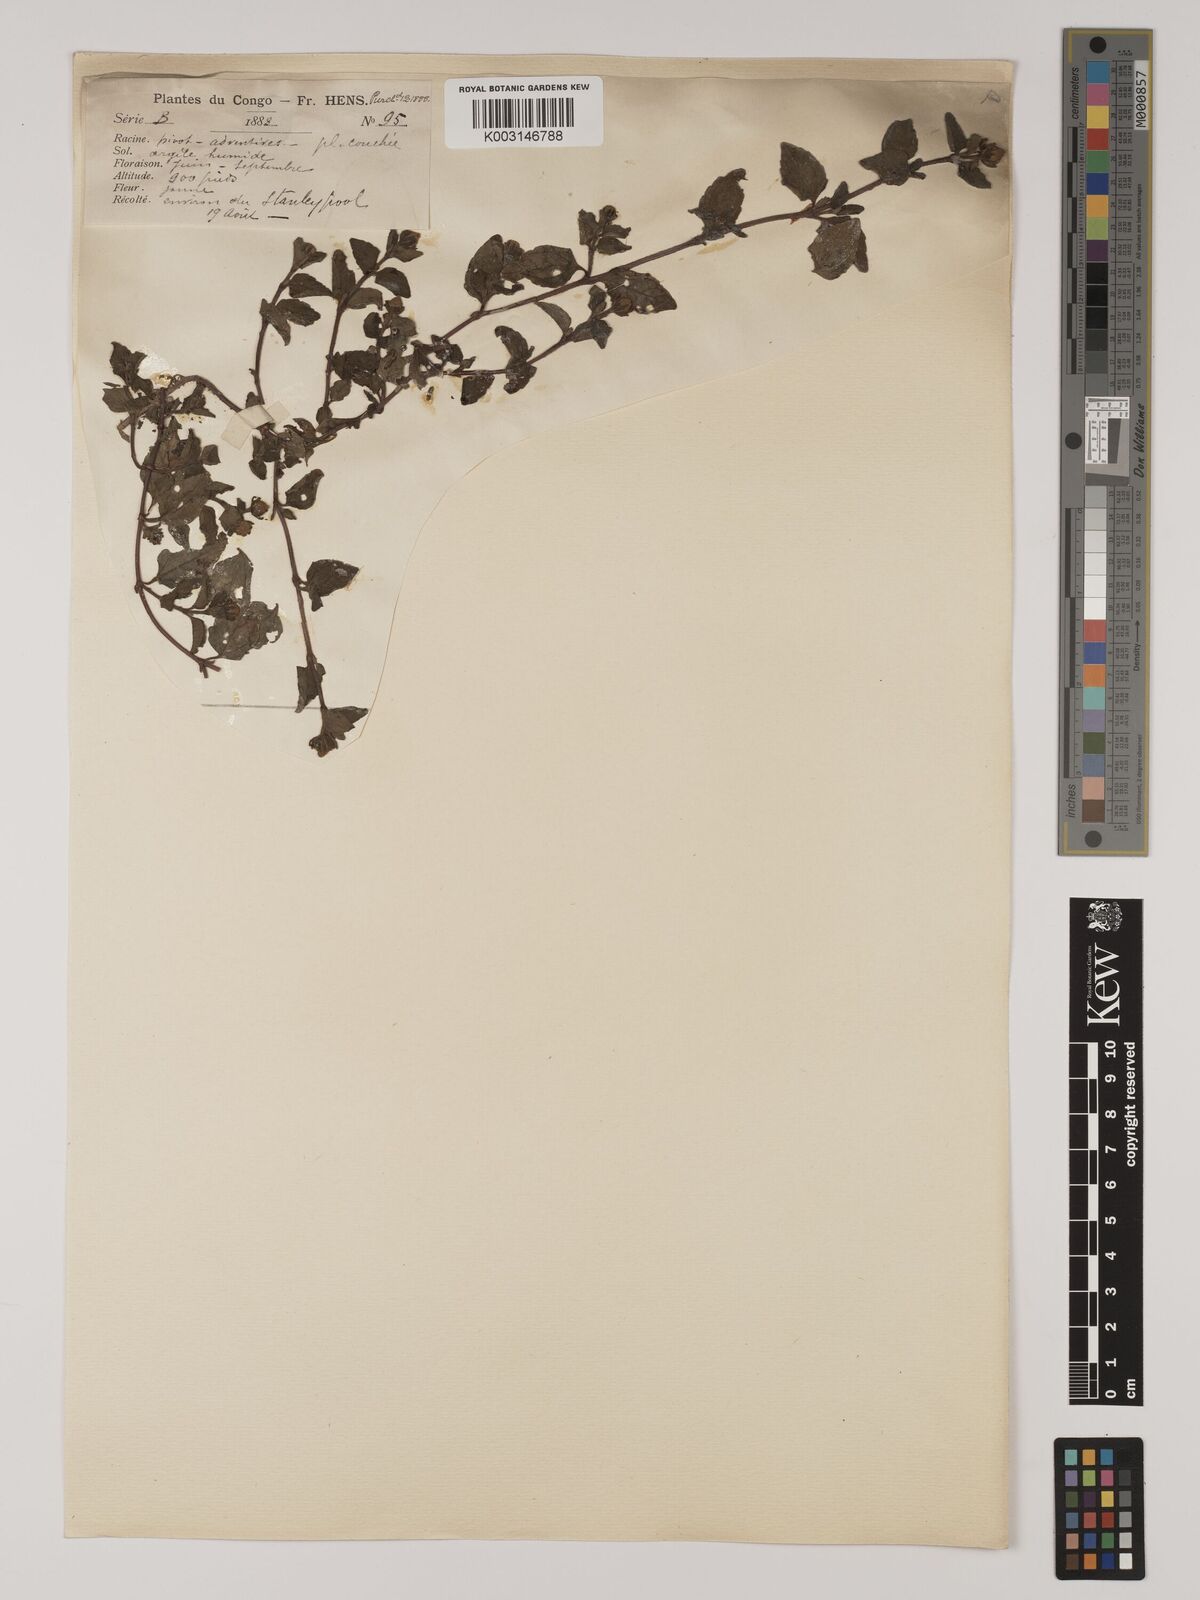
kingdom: Plantae
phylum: Tracheophyta
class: Magnoliopsida
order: Asterales
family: Asteraceae
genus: Acmella
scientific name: Acmella caulirhiza
